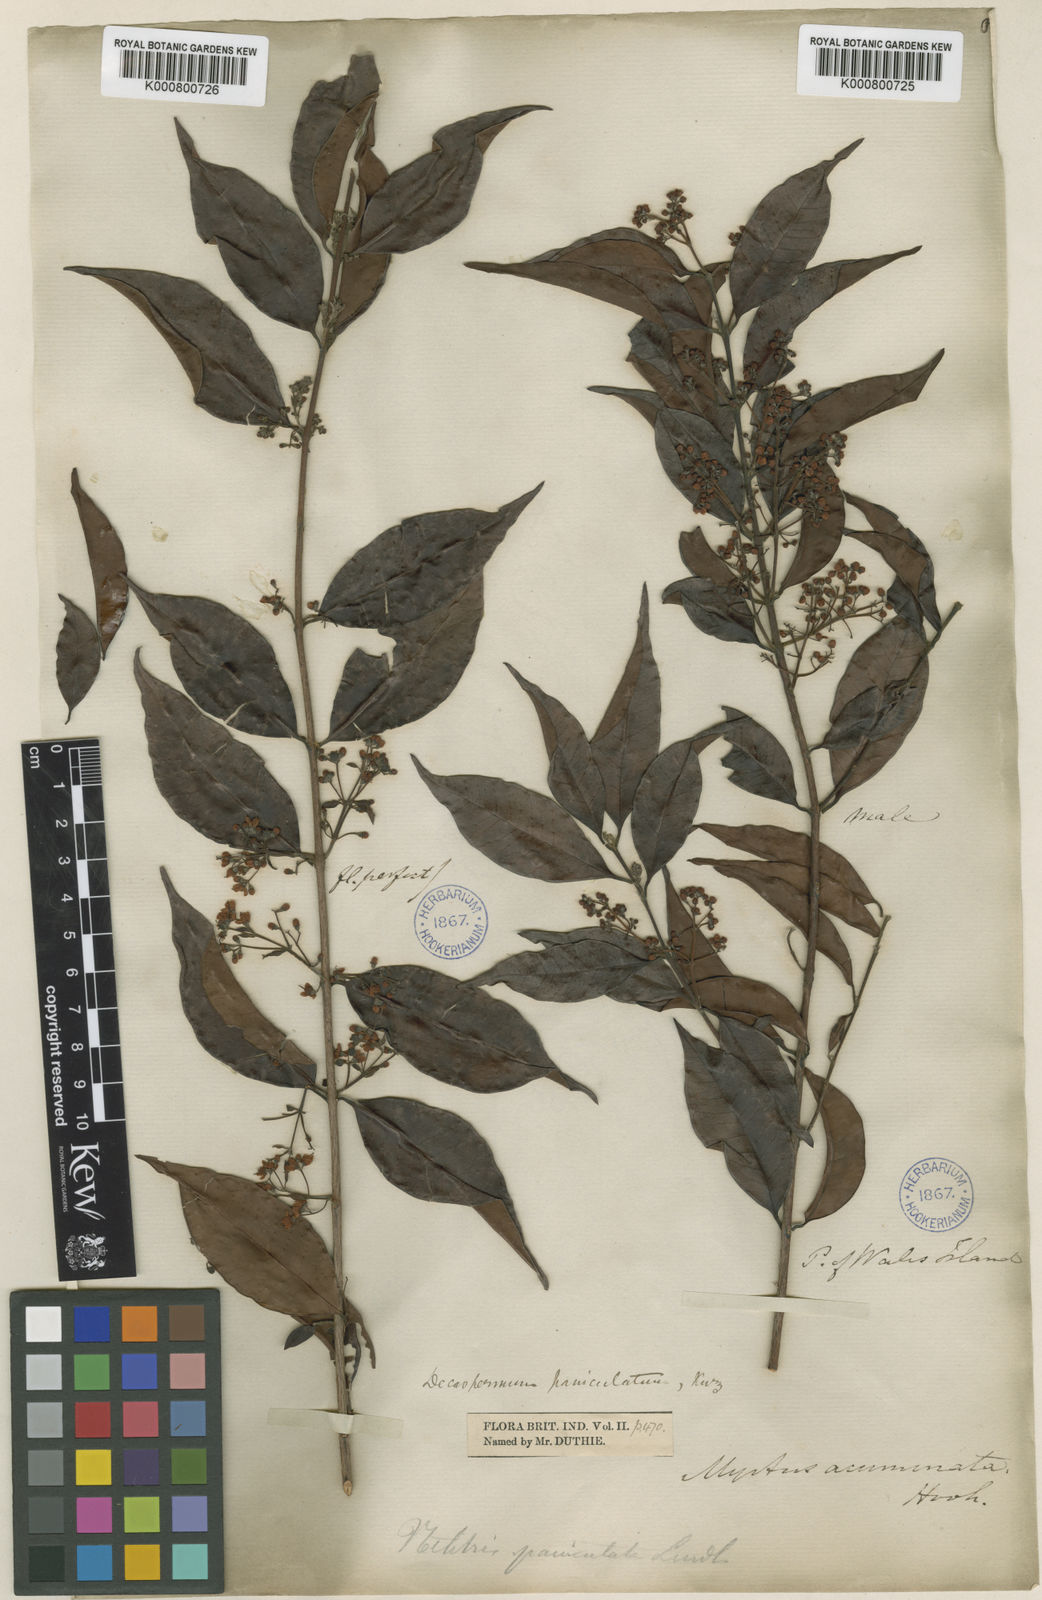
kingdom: Plantae
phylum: Tracheophyta
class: Magnoliopsida
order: Myrtales
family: Myrtaceae
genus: Decaspermum
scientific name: Decaspermum parviflorum
